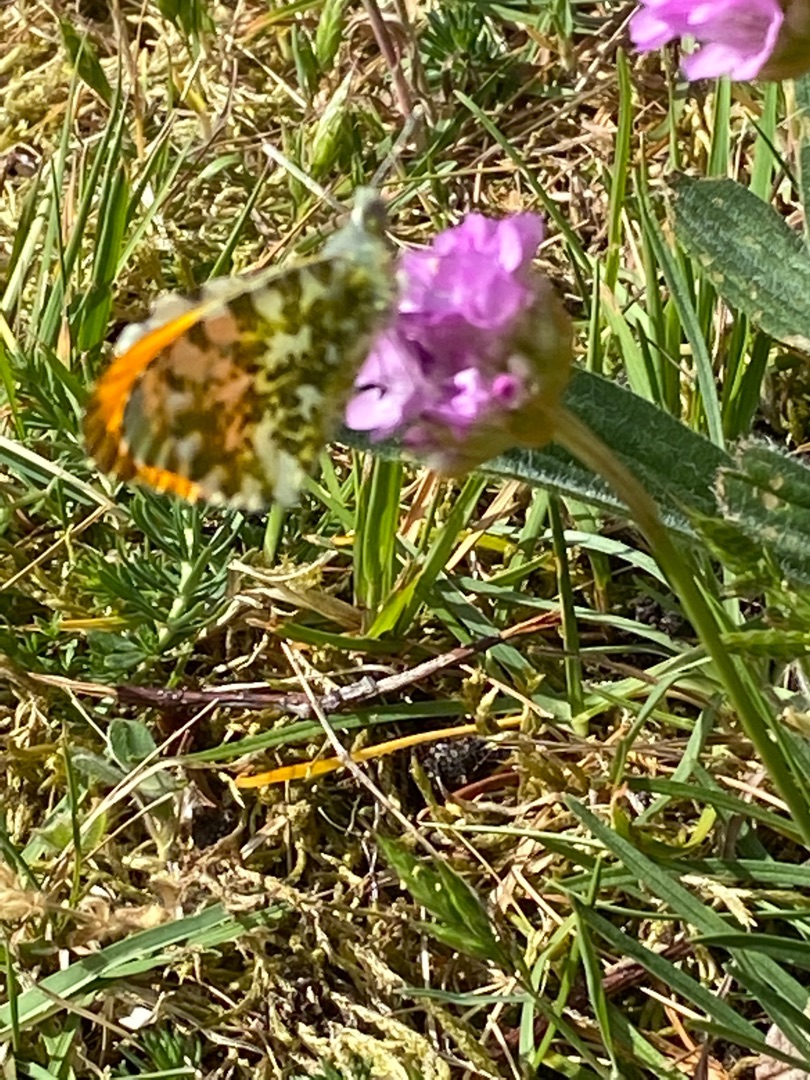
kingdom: Animalia
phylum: Arthropoda
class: Insecta
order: Lepidoptera
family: Pieridae
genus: Anthocharis
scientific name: Anthocharis cardamines
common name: Aurora
